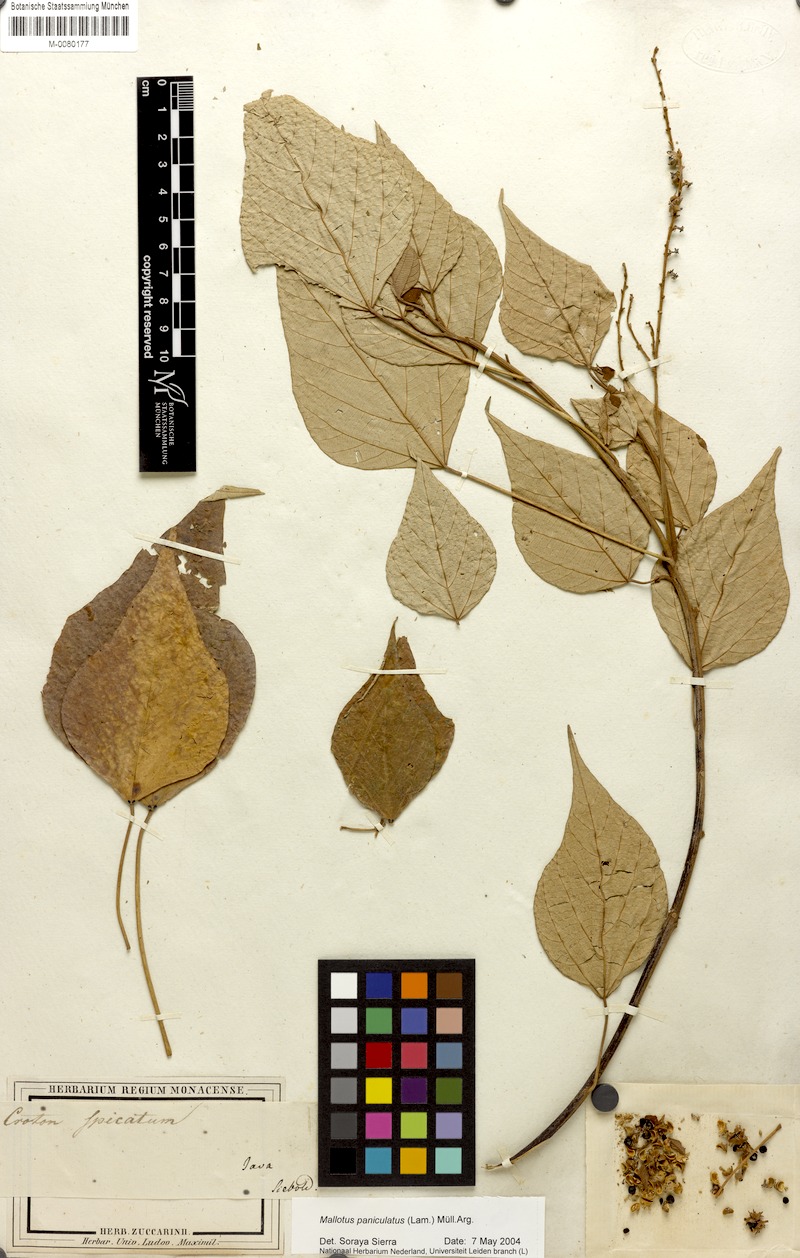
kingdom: Plantae
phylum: Tracheophyta
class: Magnoliopsida
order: Malpighiales
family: Euphorbiaceae
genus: Mallotus
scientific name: Mallotus paniculatus
